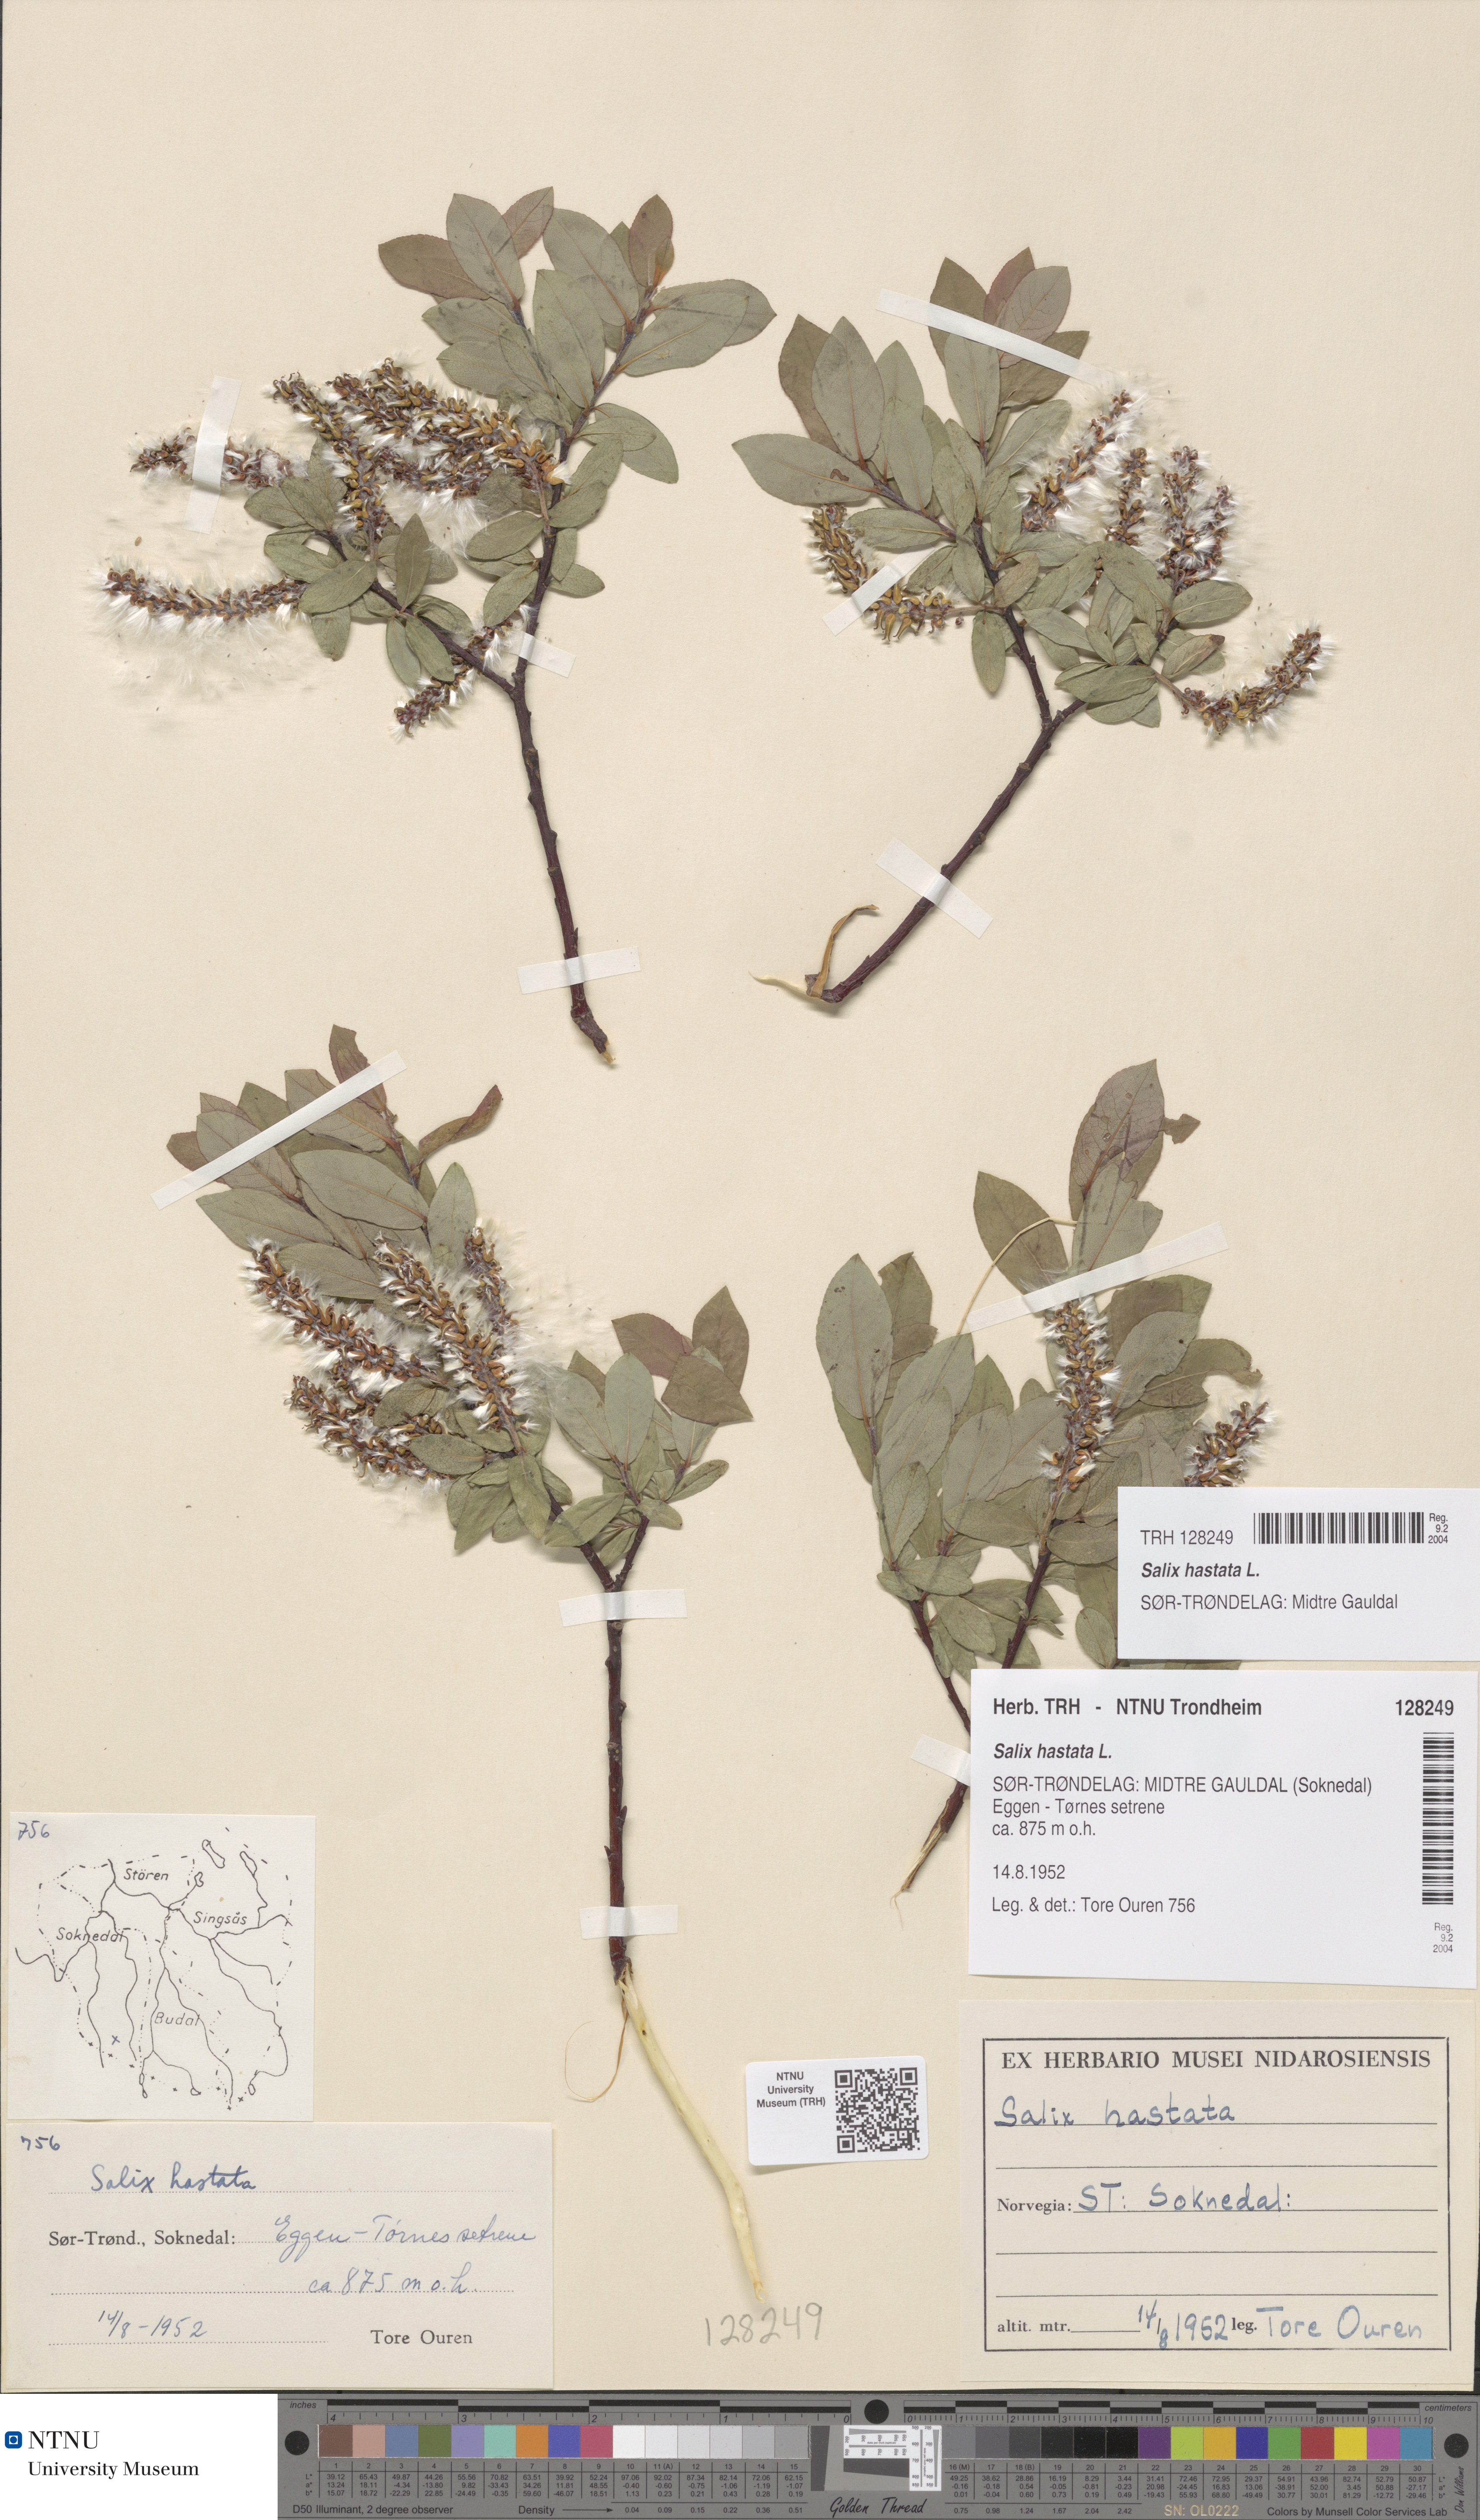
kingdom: Plantae
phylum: Tracheophyta
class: Magnoliopsida
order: Malpighiales
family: Salicaceae
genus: Salix
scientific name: Salix hastata
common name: Halberd willow
